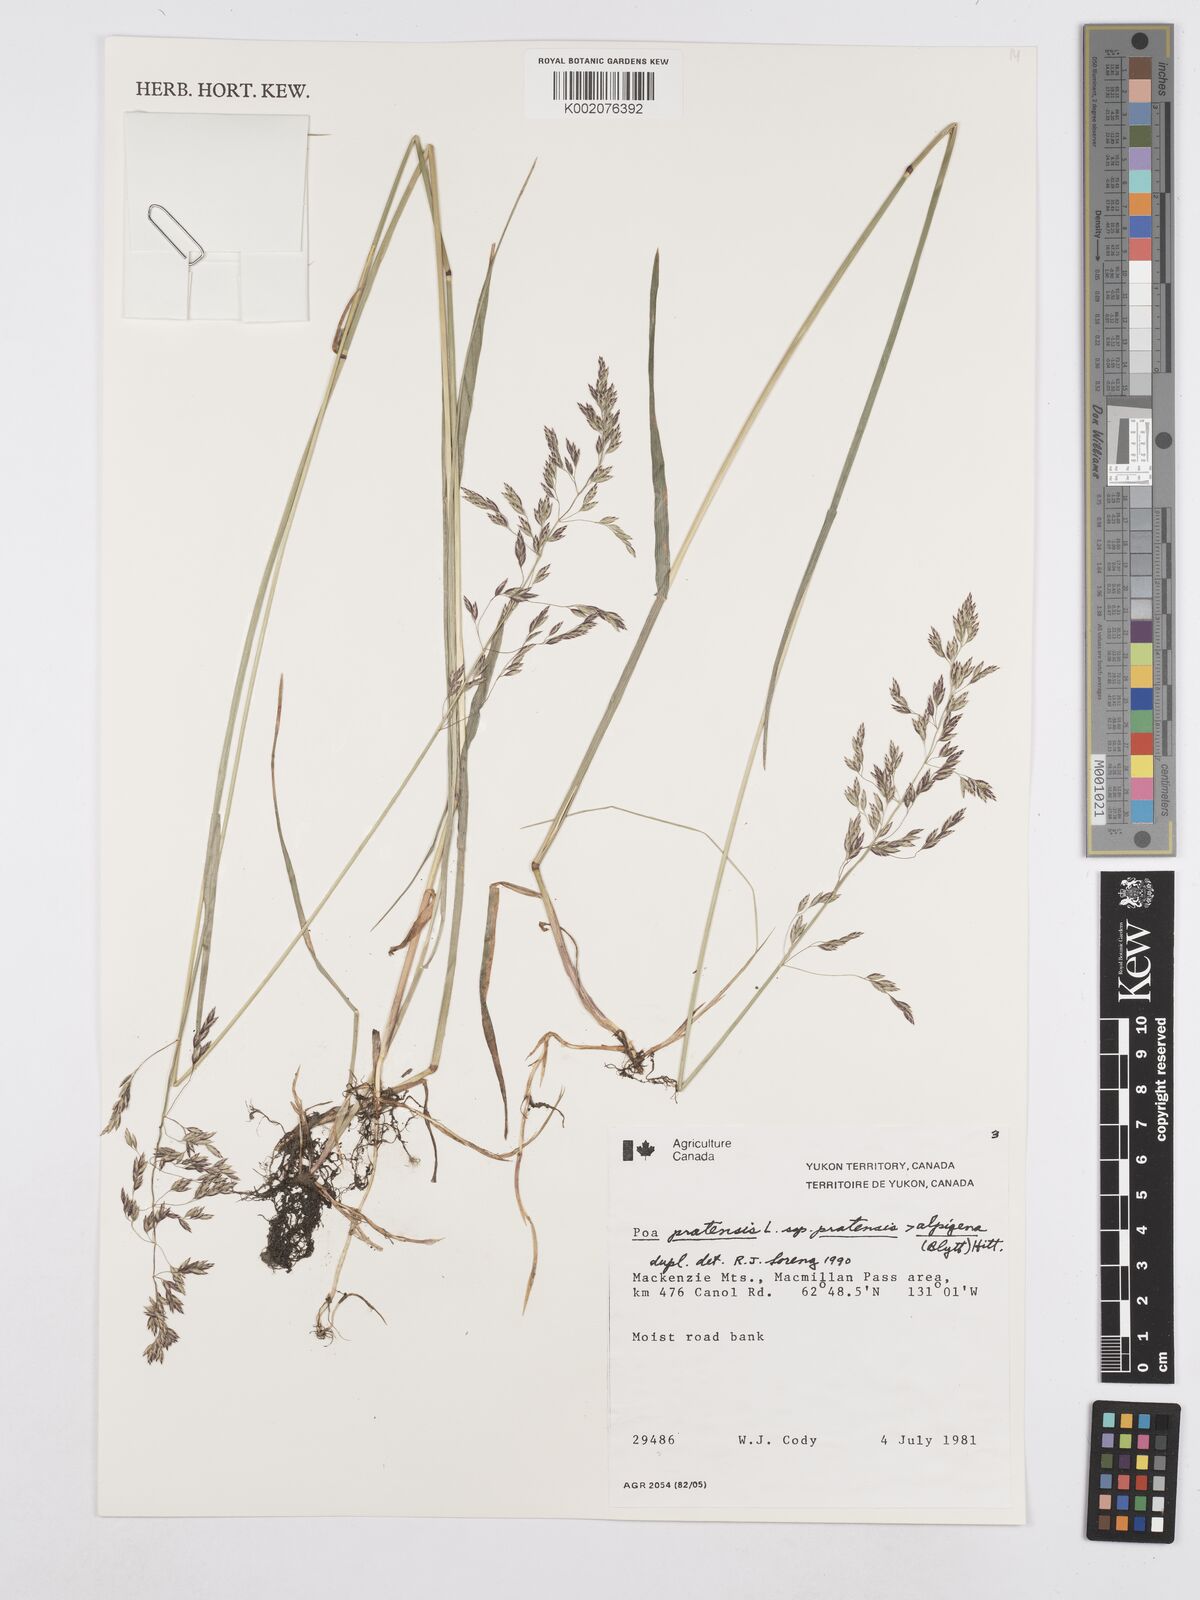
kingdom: Plantae
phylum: Tracheophyta
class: Liliopsida
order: Poales
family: Poaceae
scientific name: Poaceae
